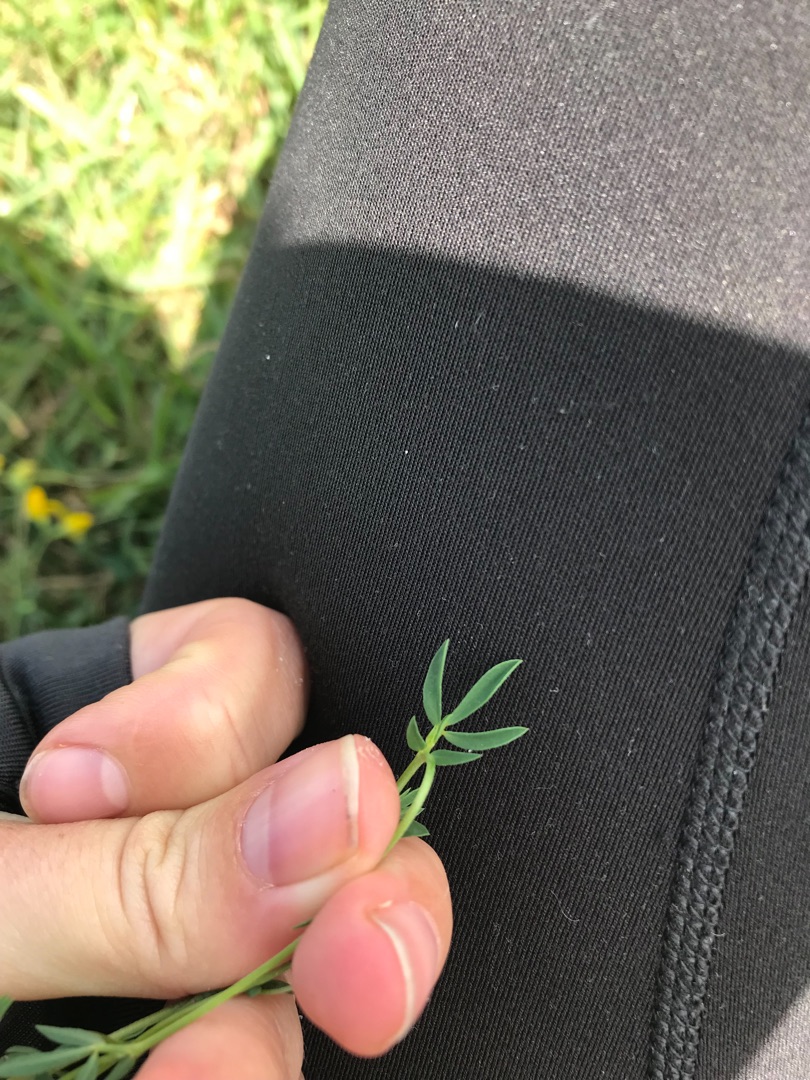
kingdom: Plantae
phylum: Tracheophyta
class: Magnoliopsida
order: Fabales
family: Fabaceae
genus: Lotus
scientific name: Lotus tenuis
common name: Smalbladet kællingetand
